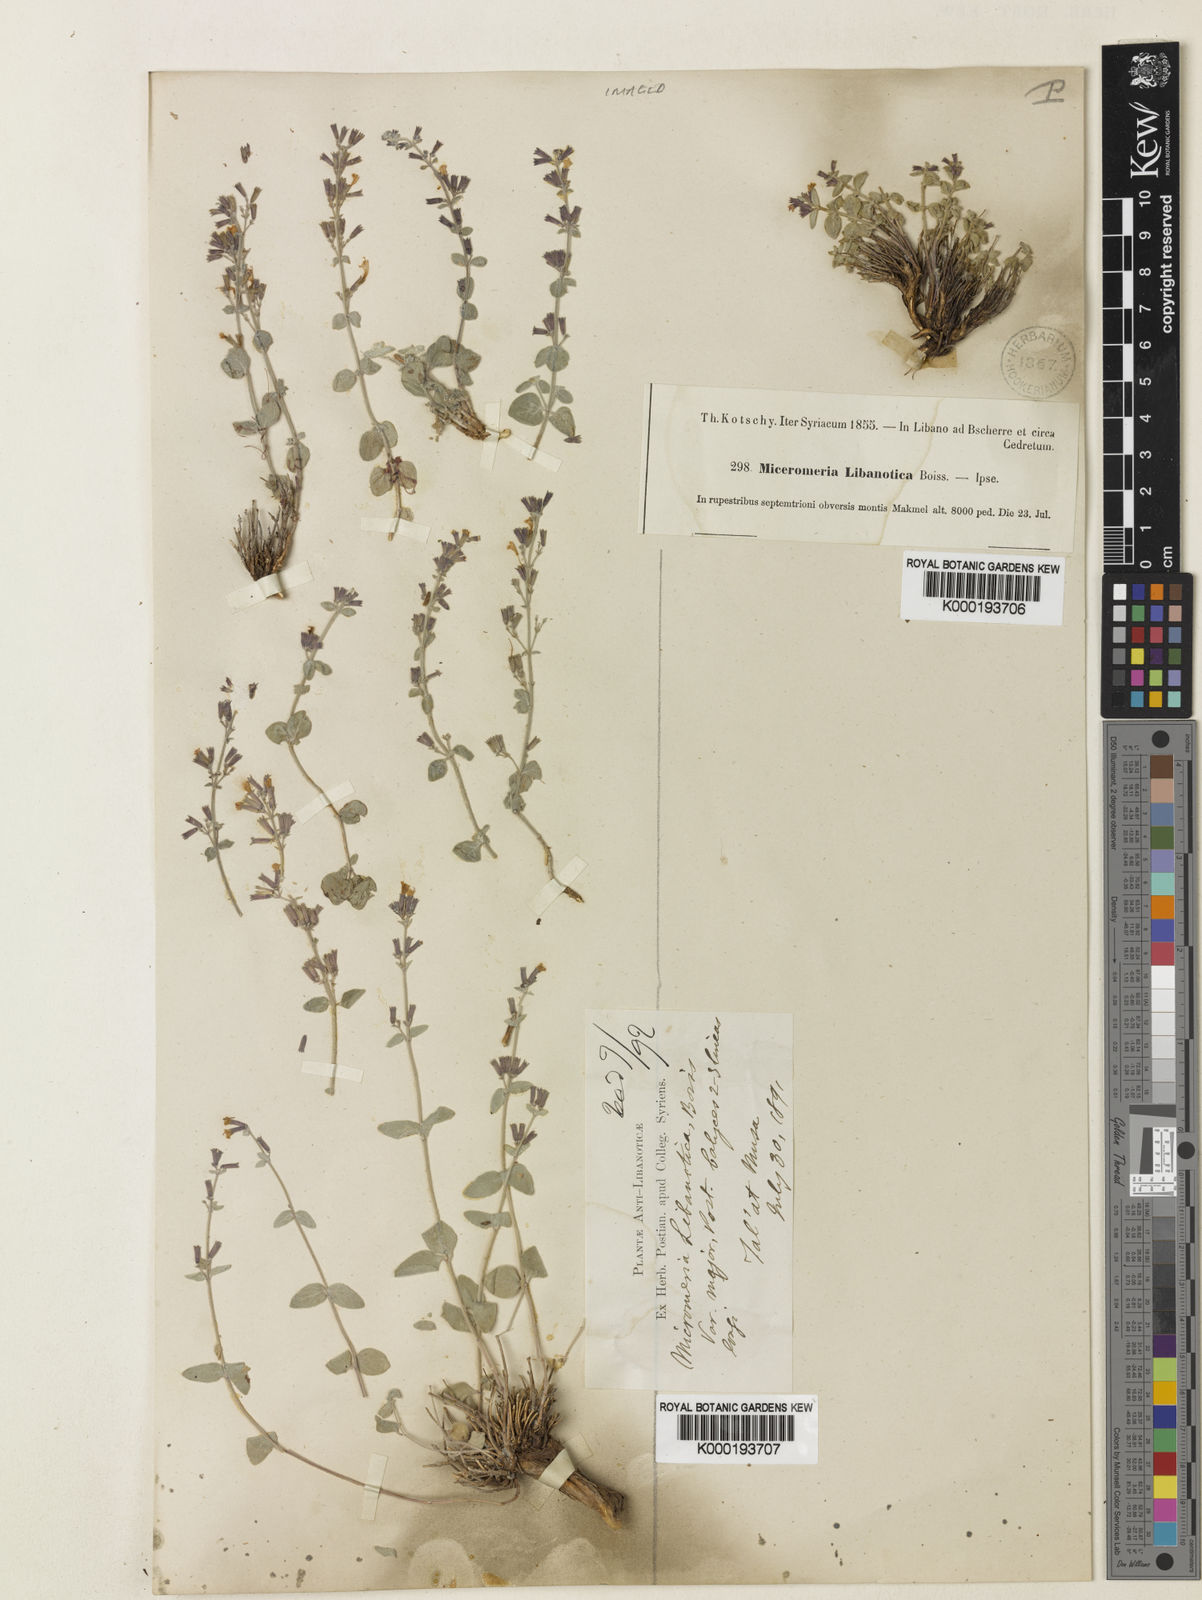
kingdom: Plantae
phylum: Tracheophyta
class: Magnoliopsida
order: Lamiales
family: Lamiaceae
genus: Clinopodium
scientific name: Clinopodium libanoticum
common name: Lebanon savory
